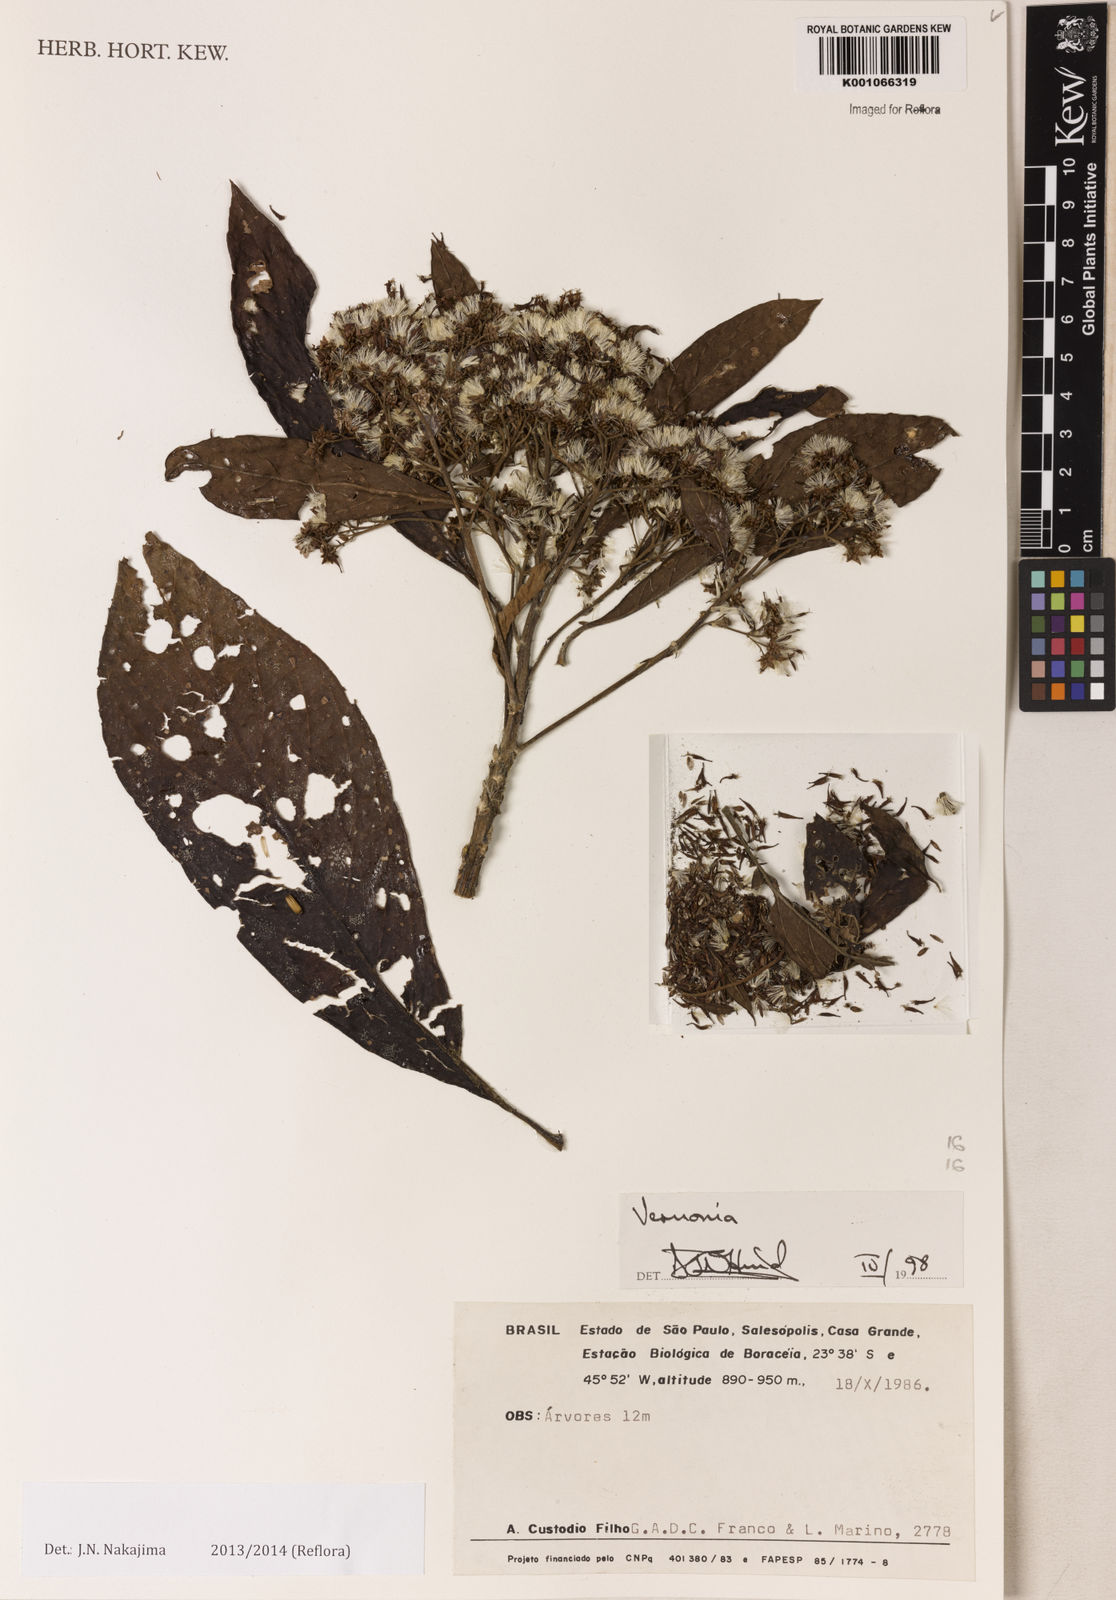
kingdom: Plantae
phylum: Tracheophyta
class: Magnoliopsida
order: Asterales
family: Asteraceae
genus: Vernonanthura
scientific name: Vernonanthura puberula
